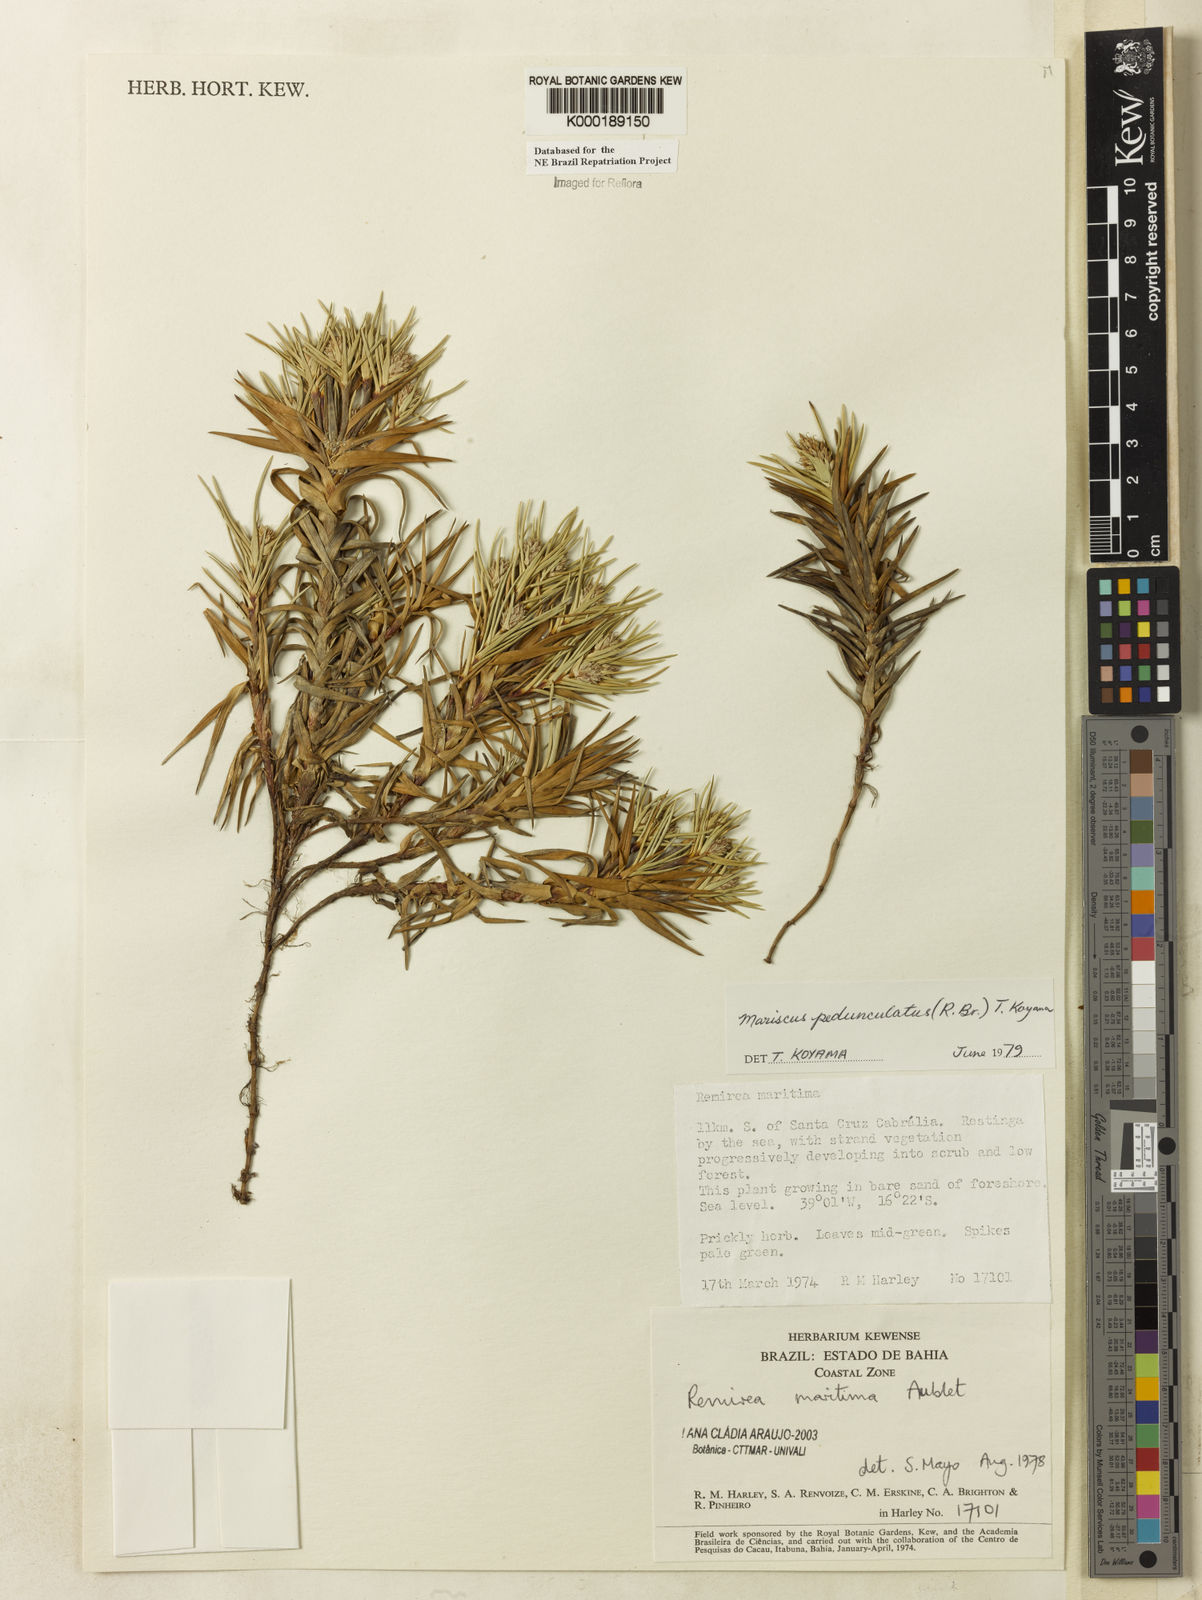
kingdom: Plantae
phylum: Tracheophyta
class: Liliopsida
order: Poales
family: Cyperaceae
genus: Cyperus
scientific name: Cyperus pedunculatus
